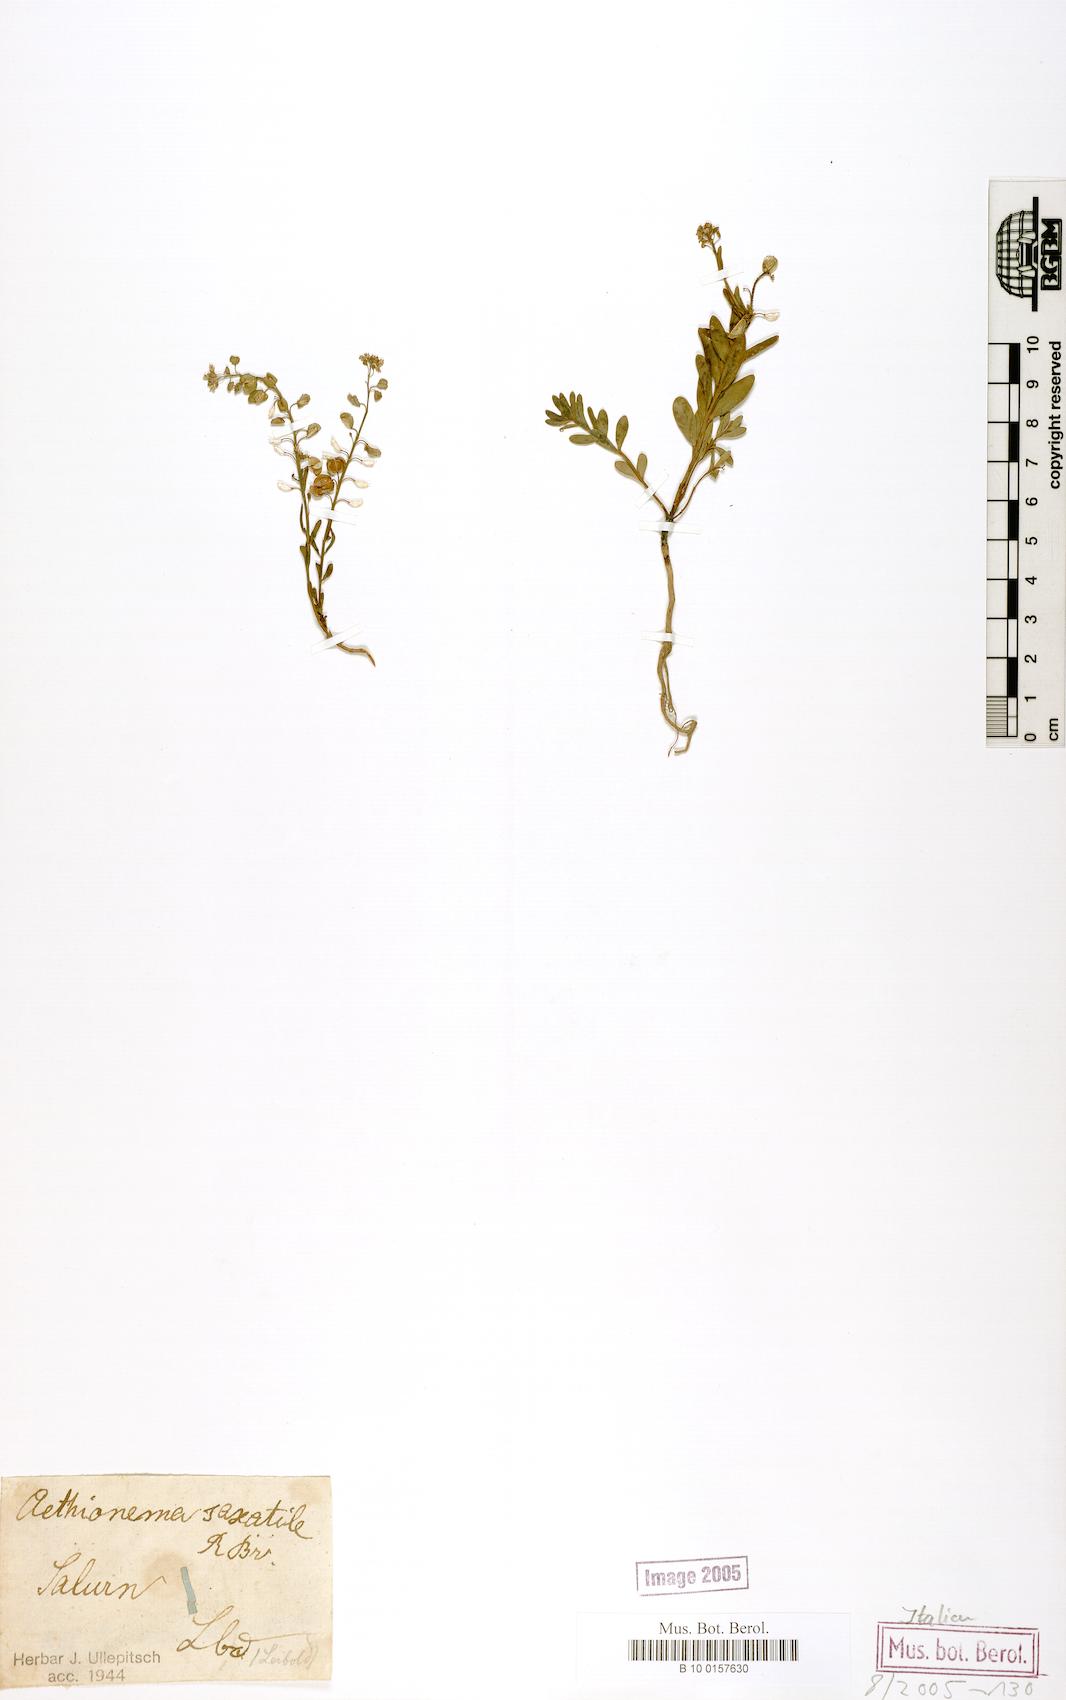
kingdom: Plantae
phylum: Tracheophyta
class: Magnoliopsida
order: Brassicales
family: Brassicaceae
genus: Aethionema
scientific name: Aethionema saxatile
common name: Burnt candytuft
